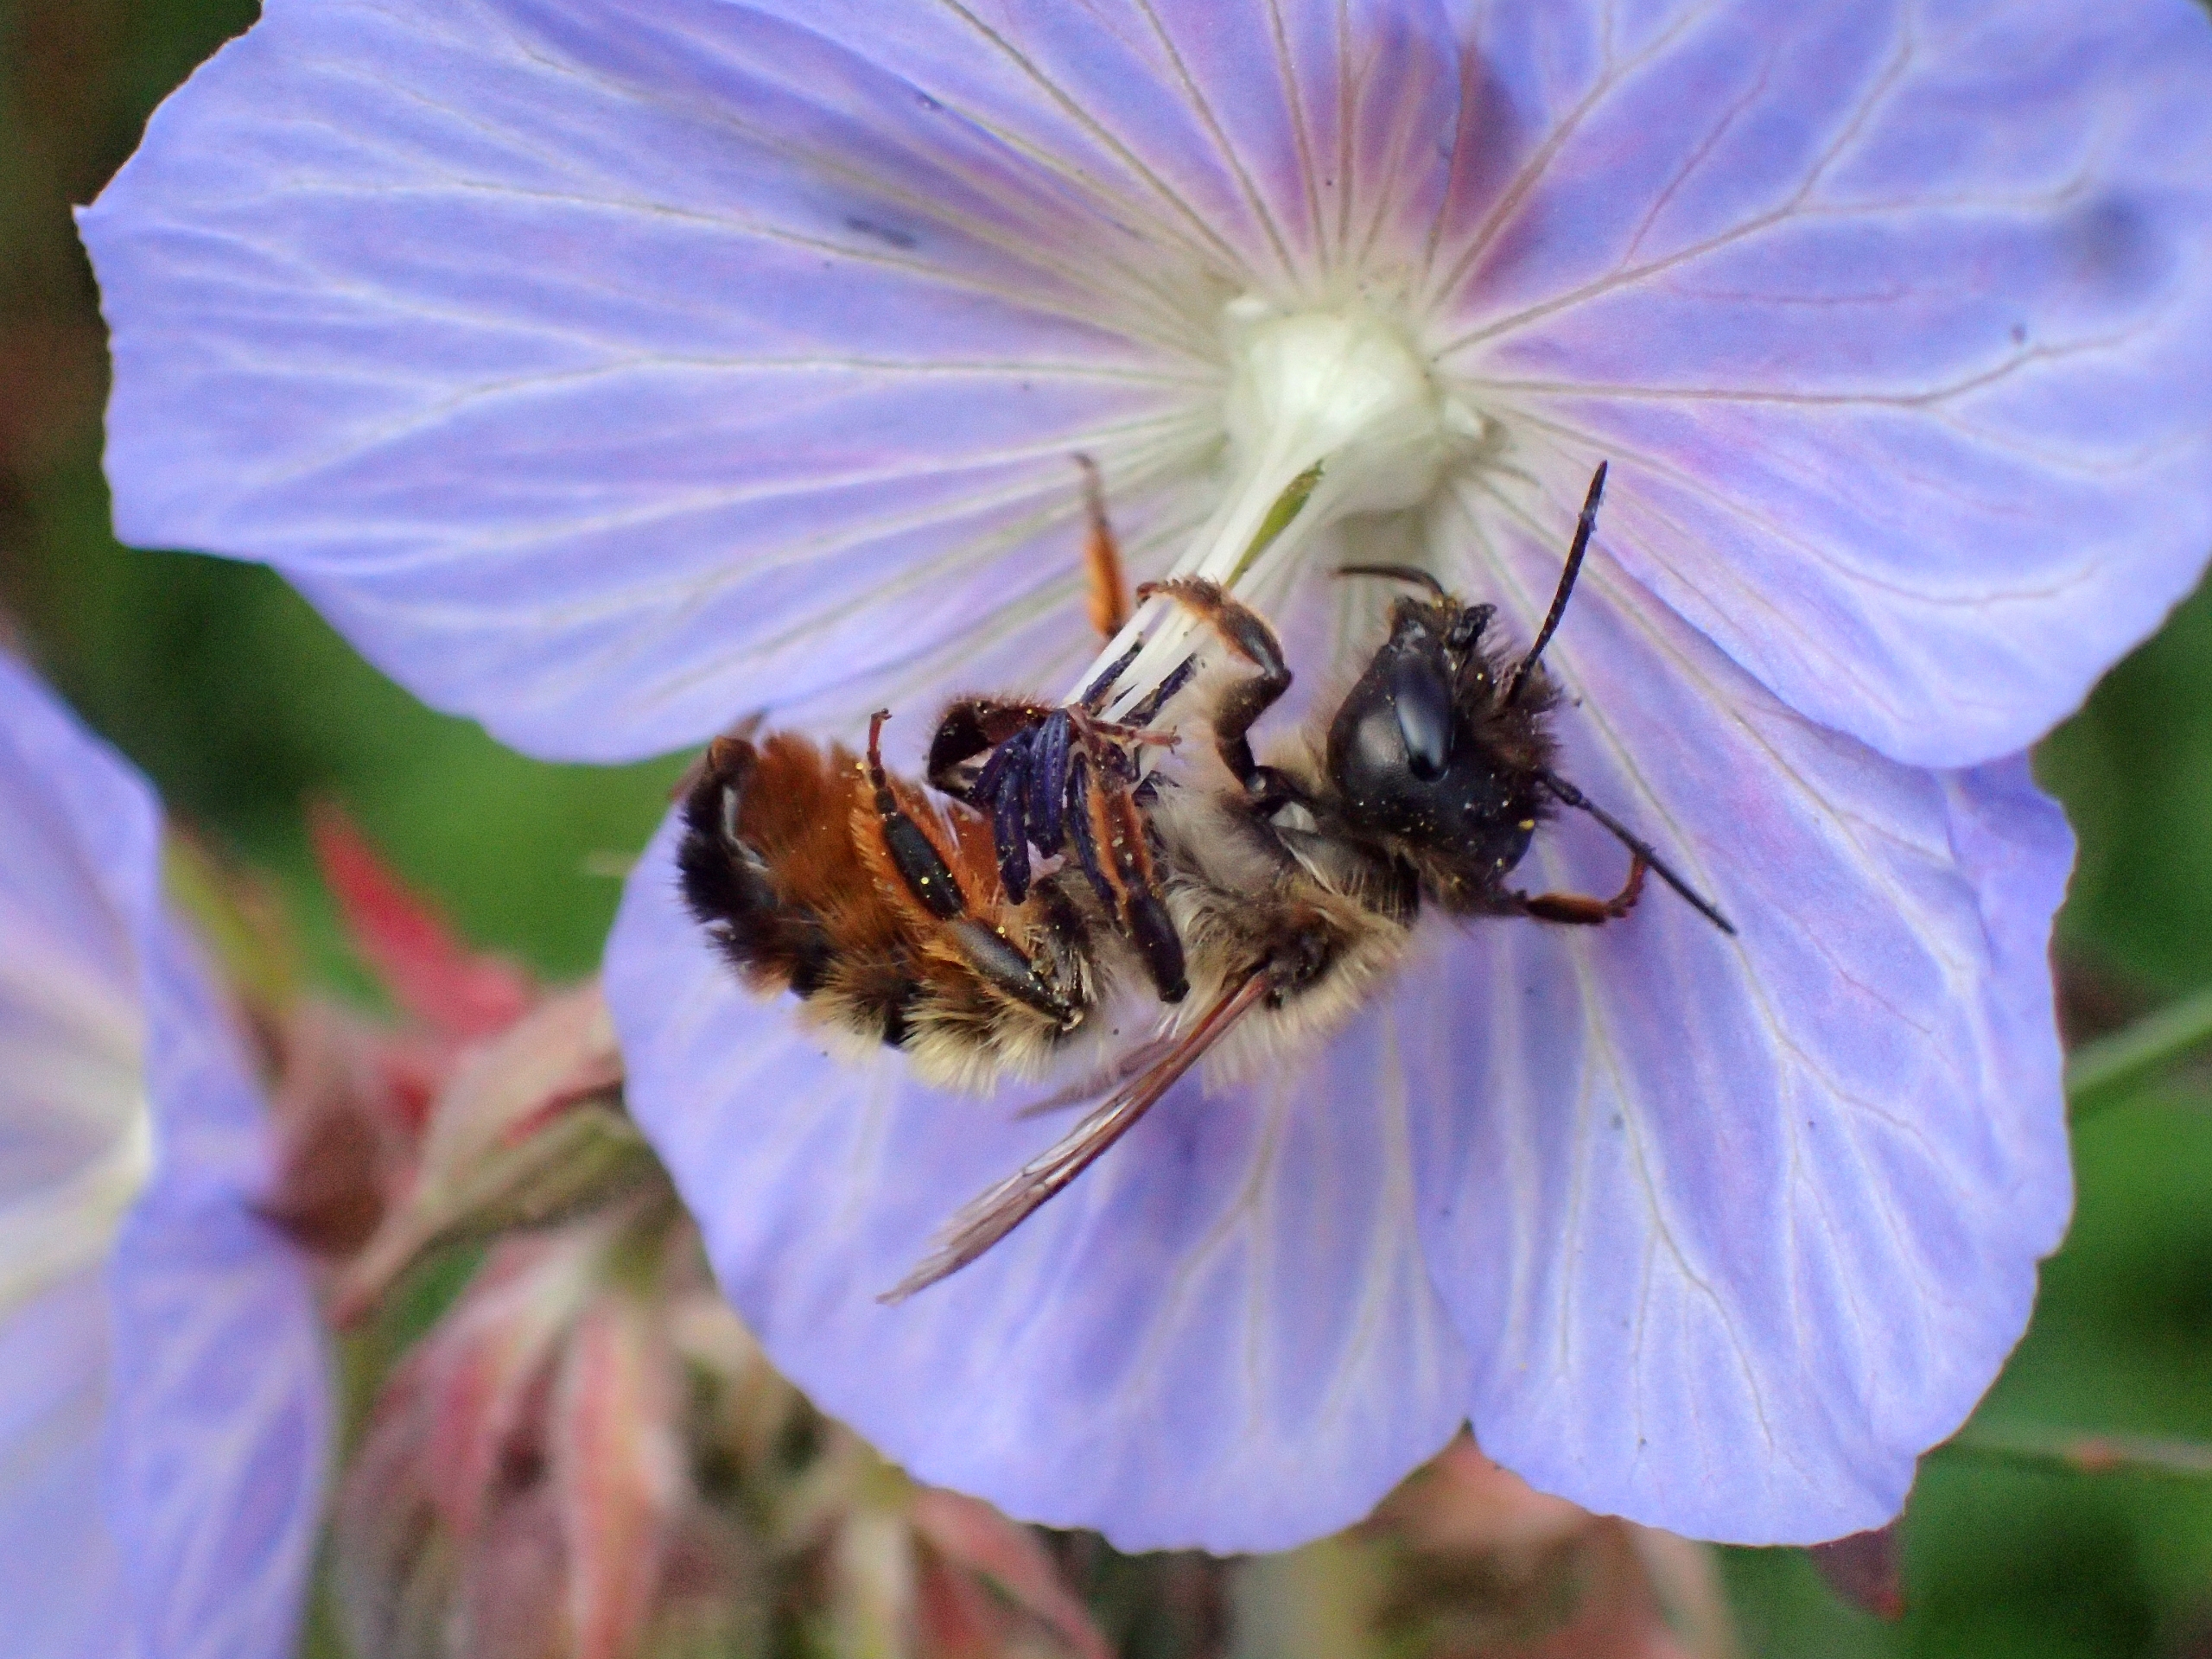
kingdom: Animalia
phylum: Arthropoda
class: Insecta
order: Hymenoptera
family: Megachilidae
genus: Osmia
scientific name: Osmia bicornis
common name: Rød murerbi
